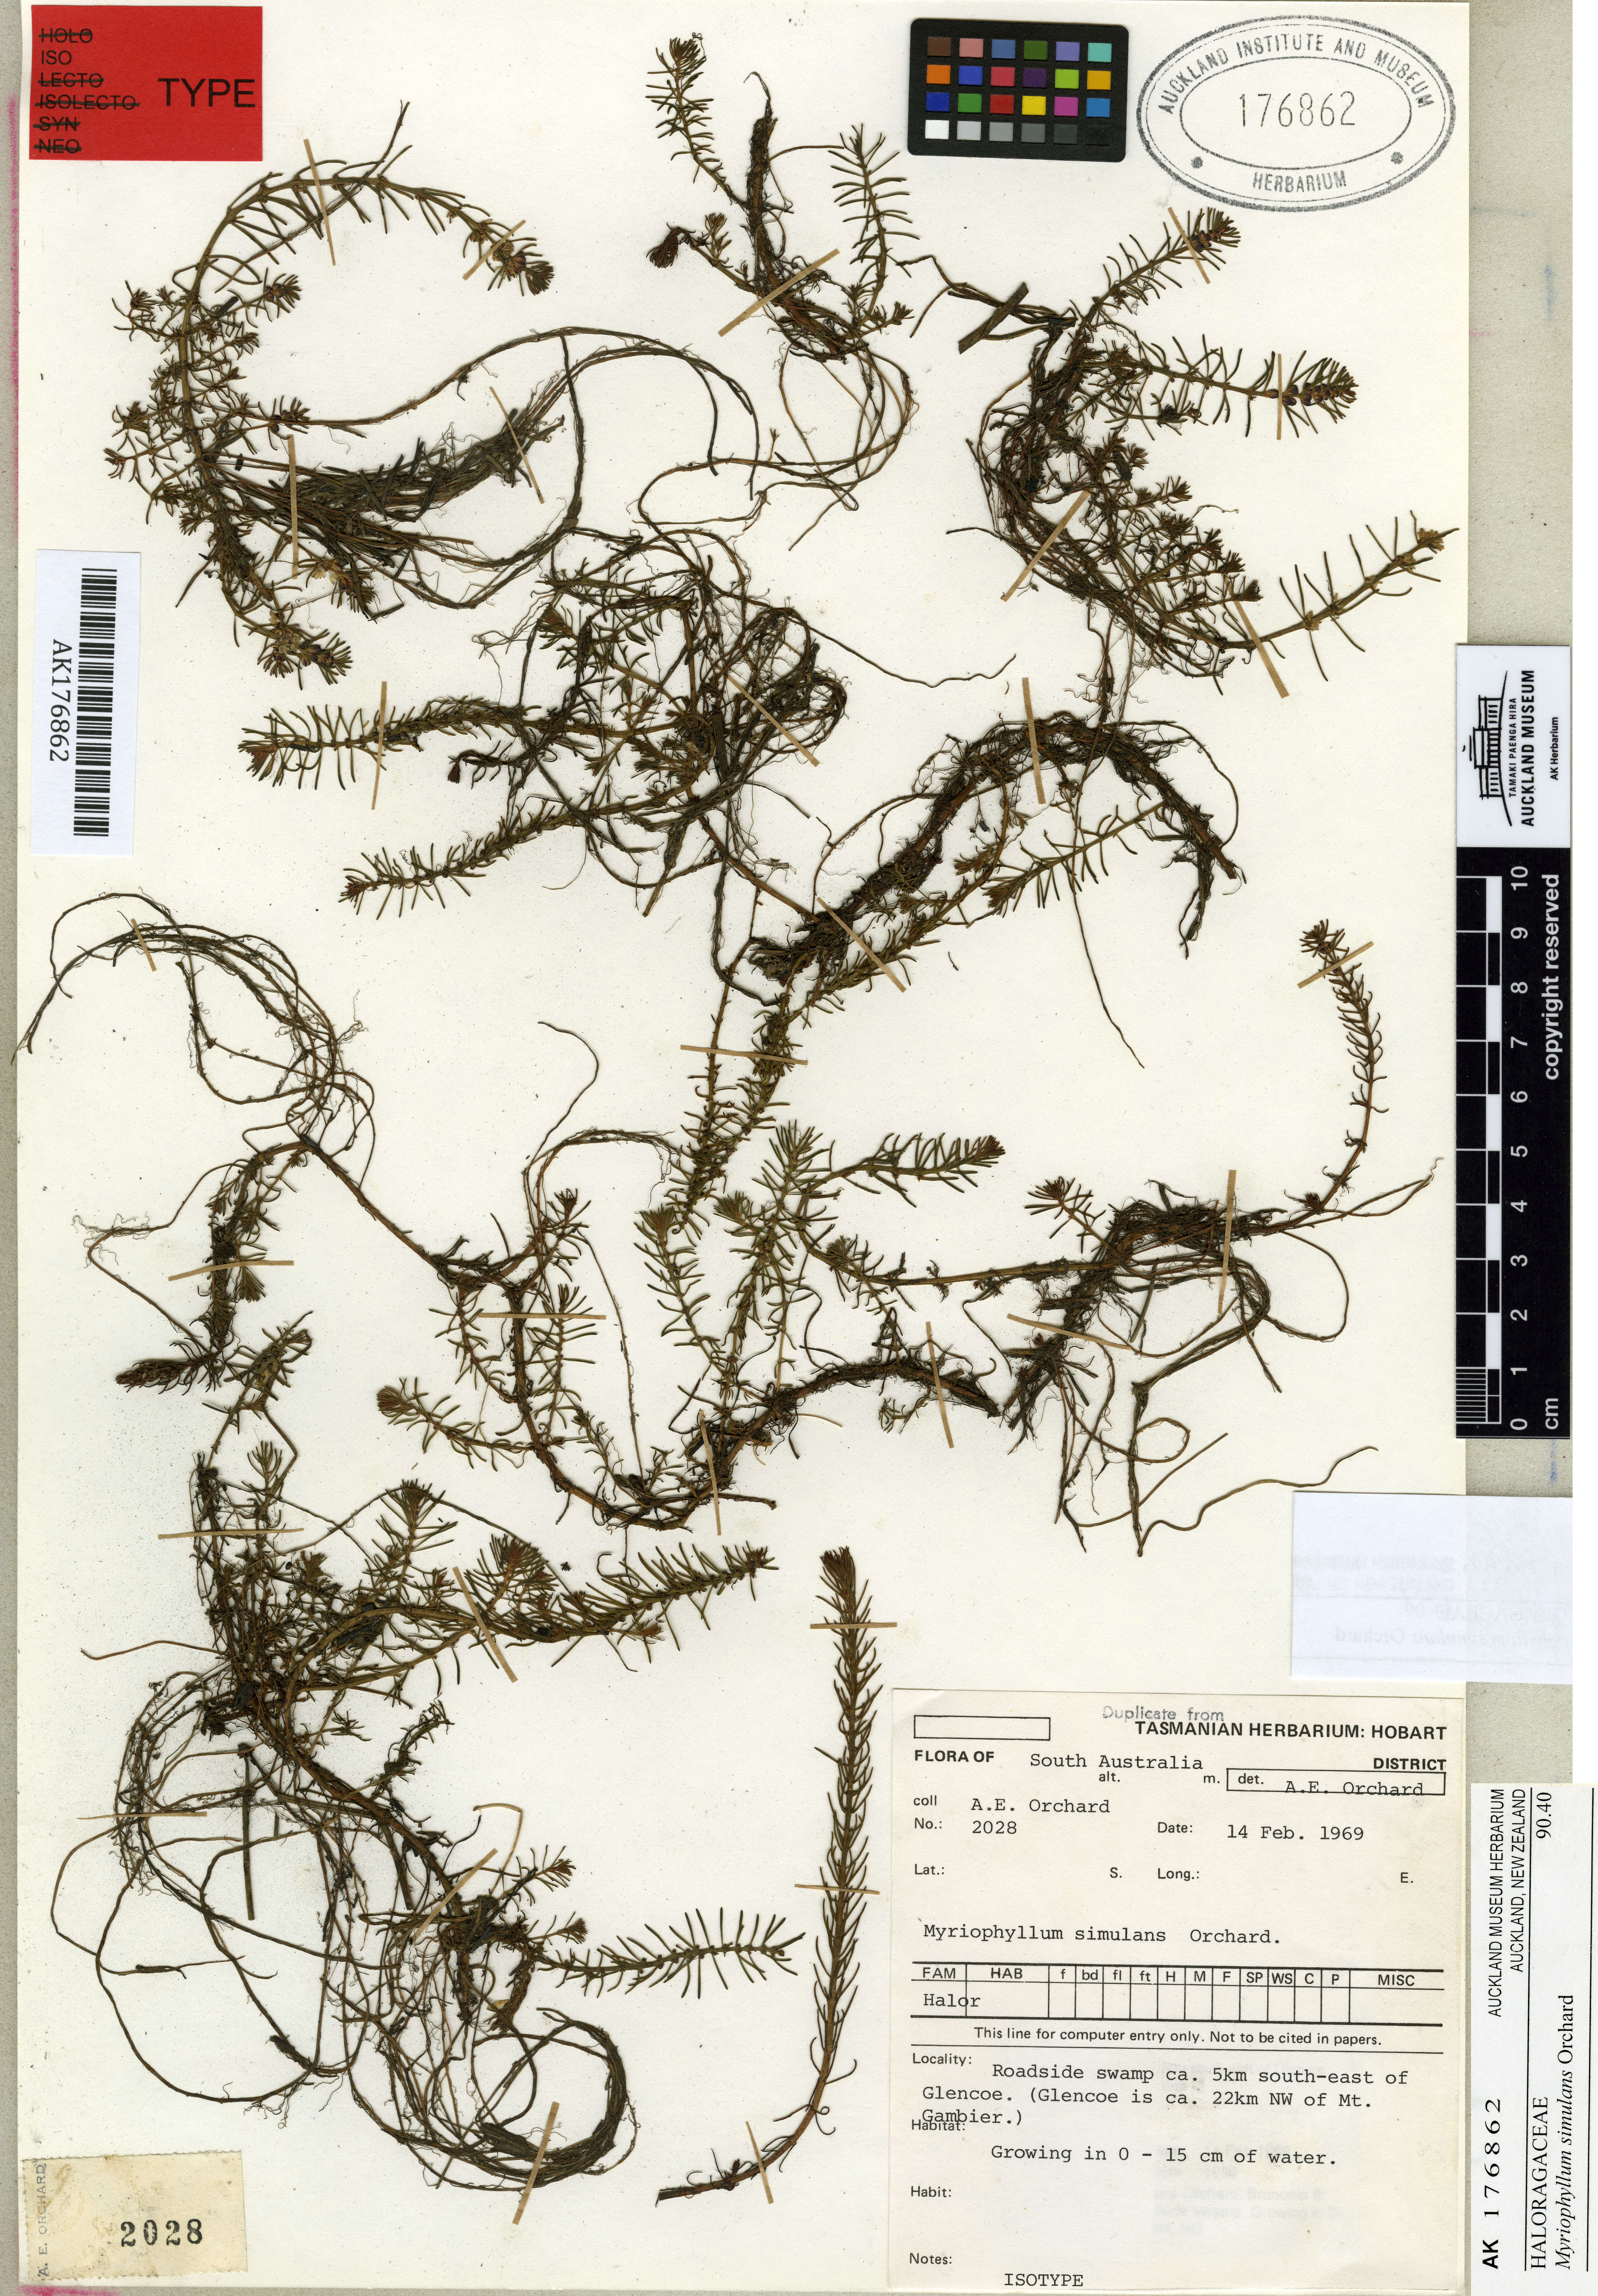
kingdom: Plantae
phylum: Tracheophyta
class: Magnoliopsida
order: Saxifragales
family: Haloragaceae
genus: Myriophyllum
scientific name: Myriophyllum simulans
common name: Amphibious water milfoil
